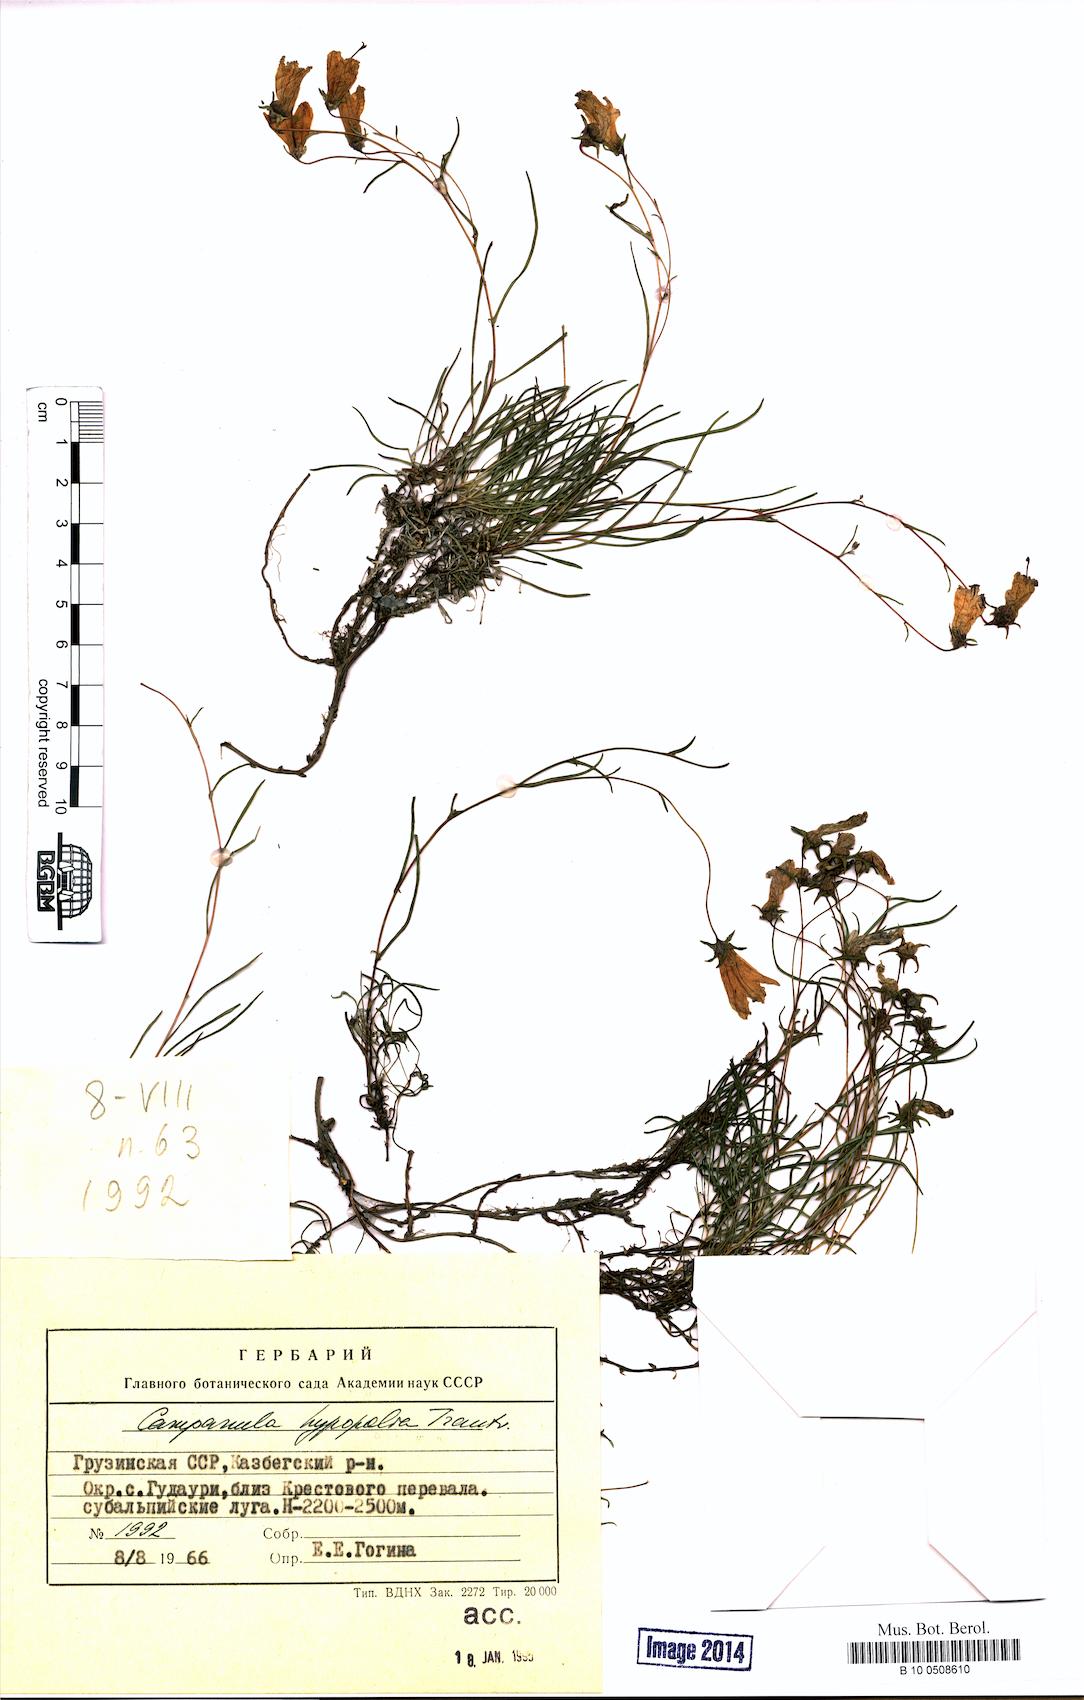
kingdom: Plantae
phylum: Tracheophyta
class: Magnoliopsida
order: Asterales
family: Campanulaceae
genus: Campanula
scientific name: Campanula hypopolia
